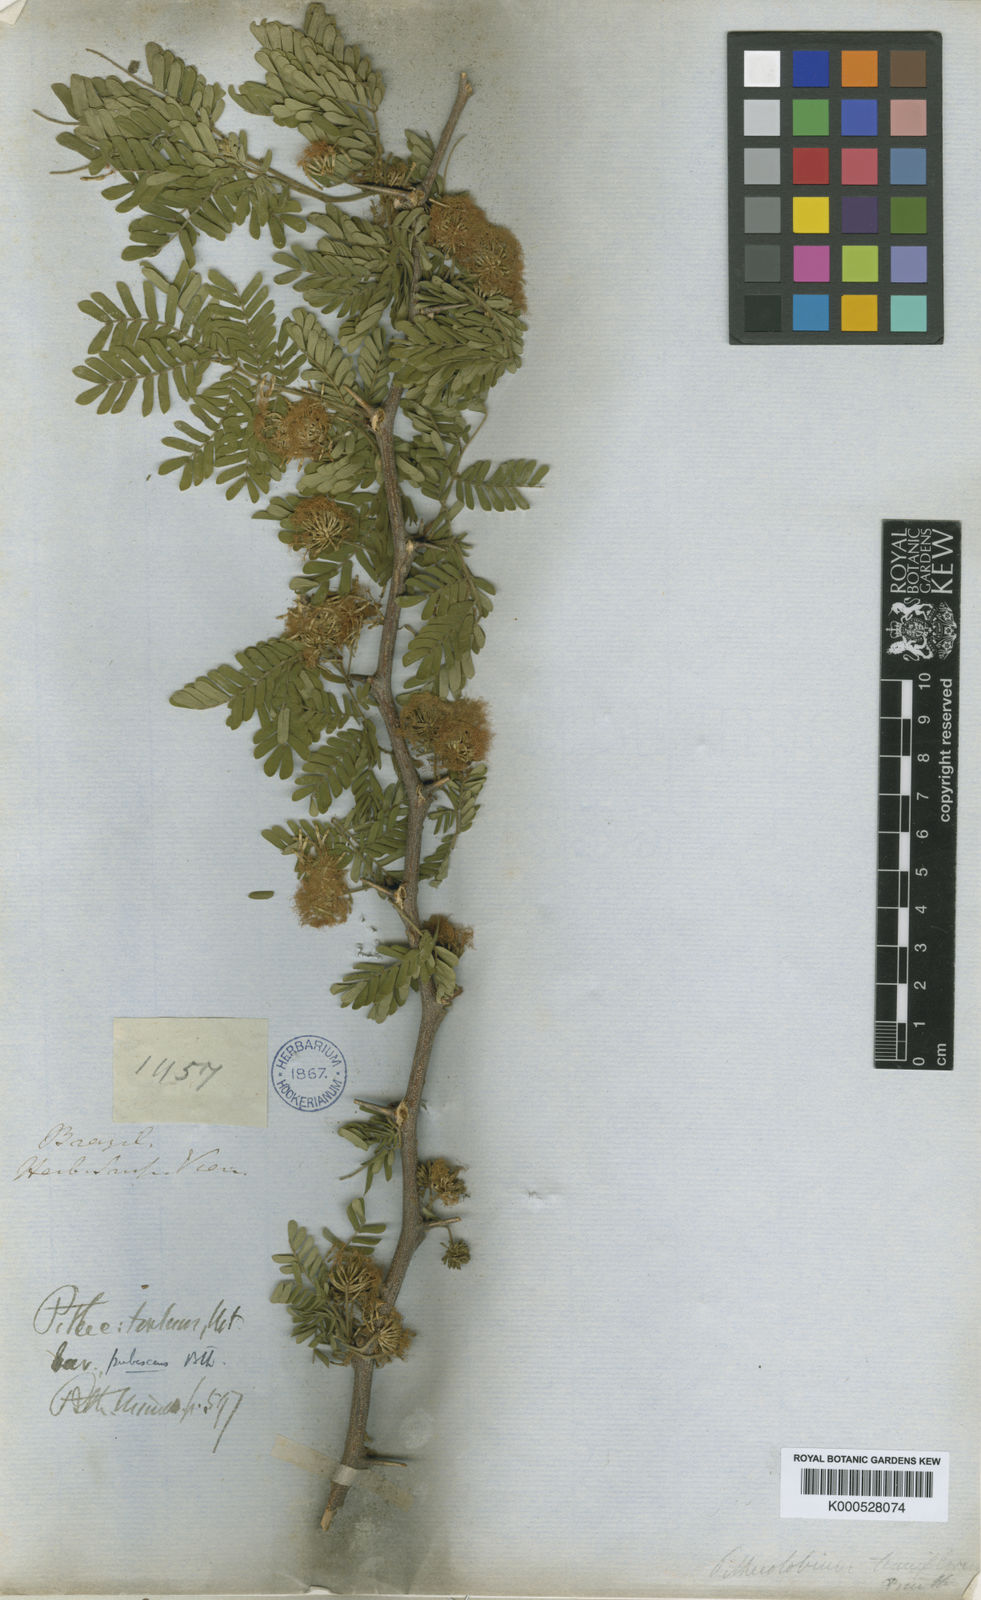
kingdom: Plantae
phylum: Tracheophyta
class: Magnoliopsida
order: Fabales
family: Fabaceae
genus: Chloroleucon
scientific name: Chloroleucon
